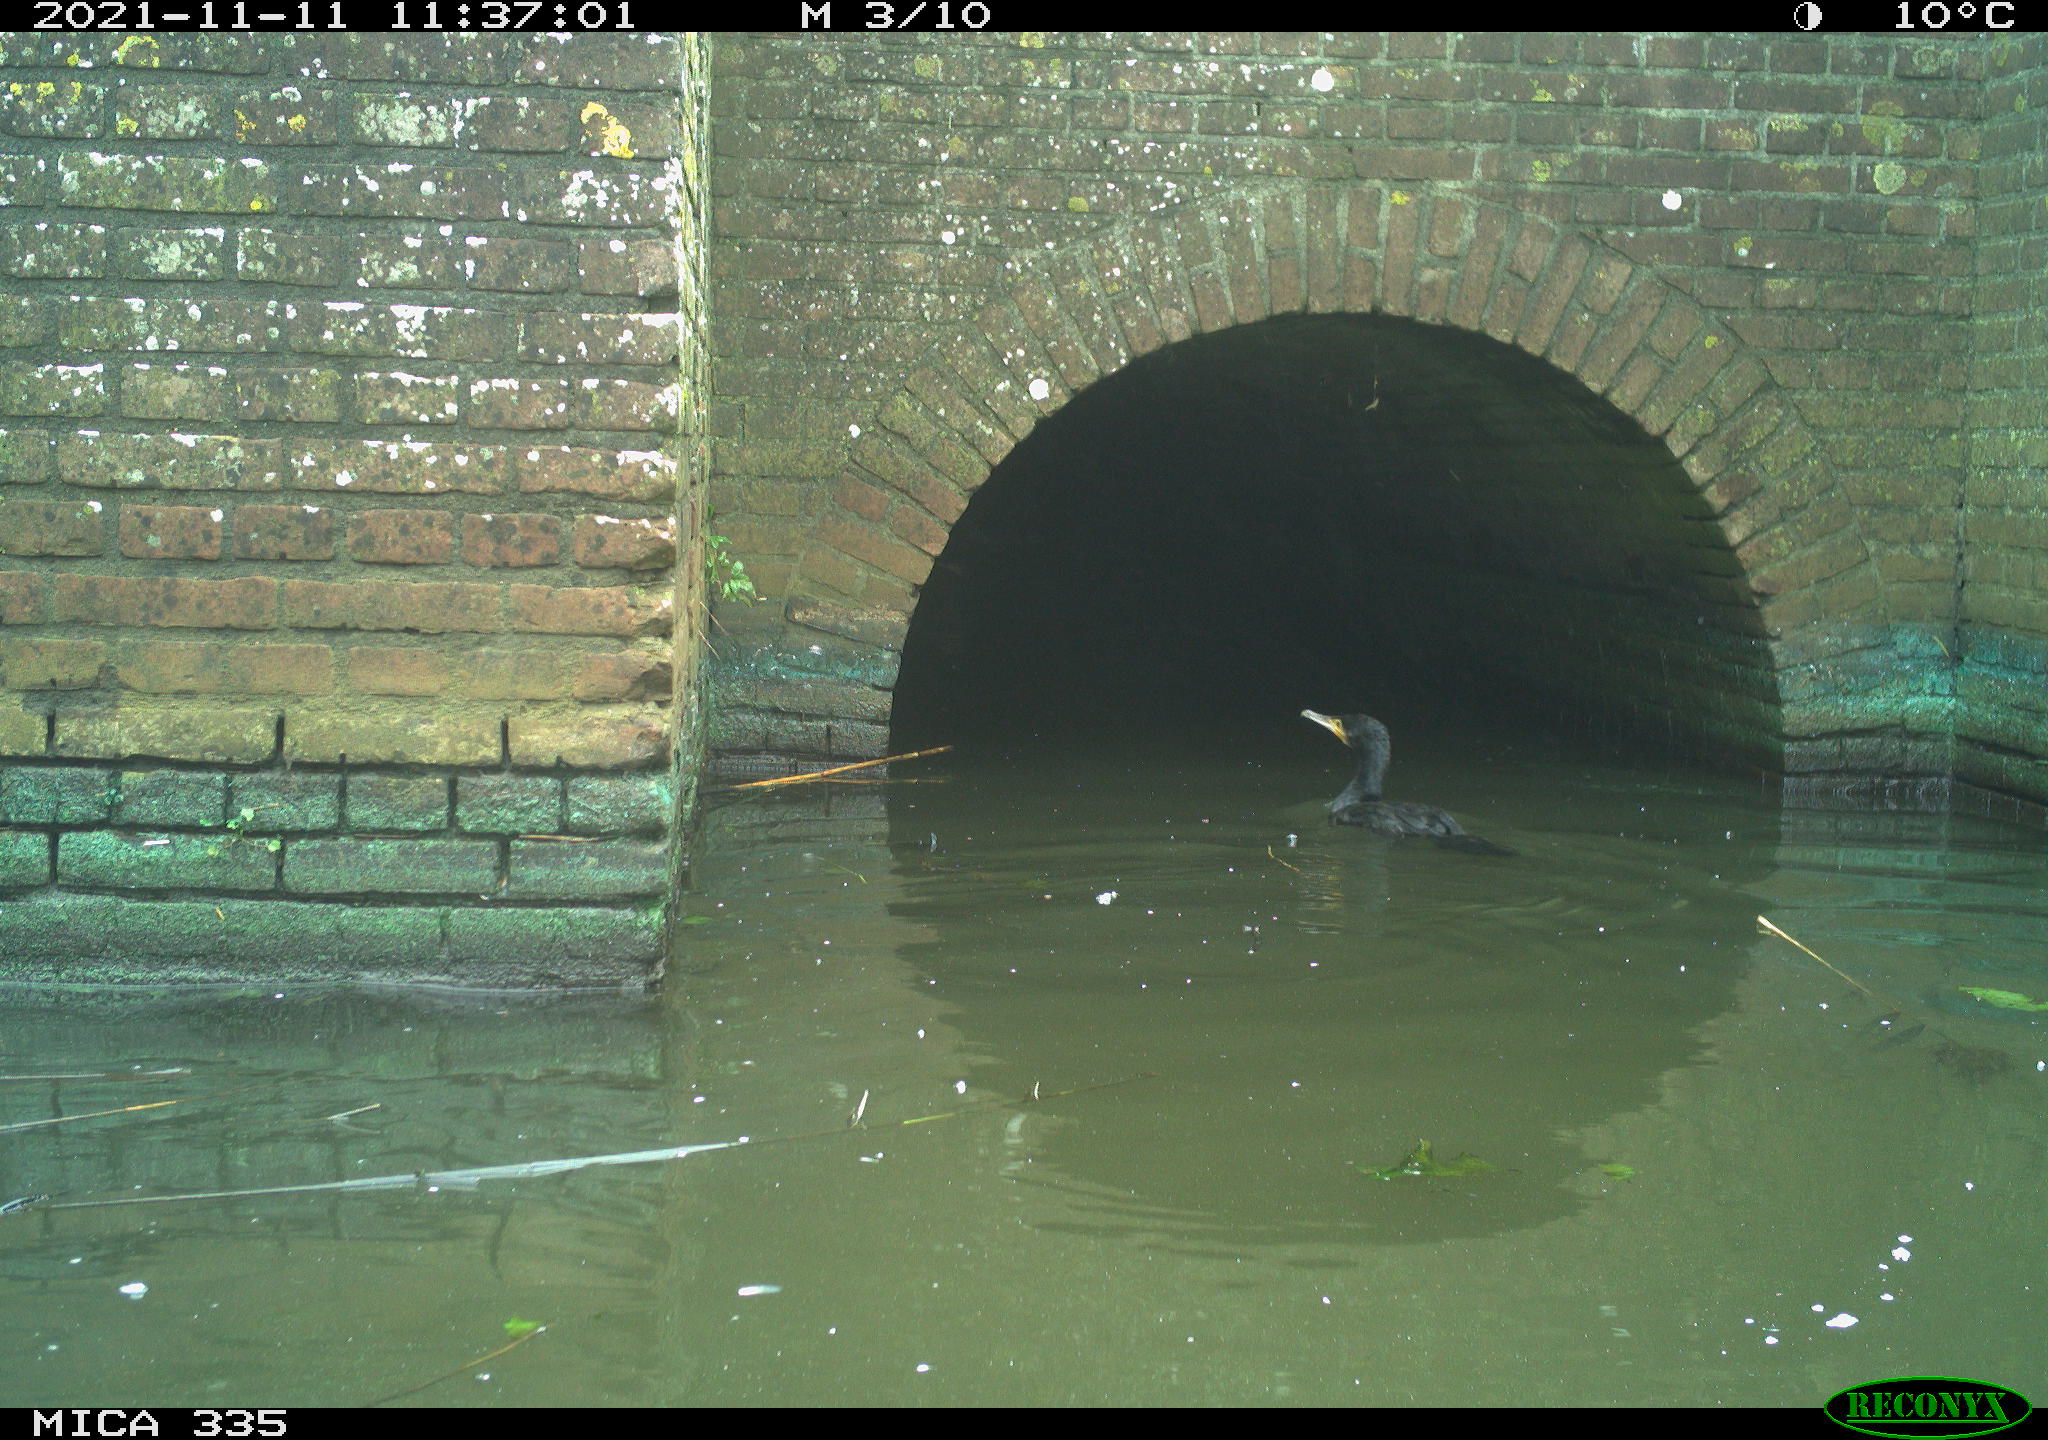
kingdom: Animalia
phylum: Chordata
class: Aves
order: Suliformes
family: Phalacrocoracidae
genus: Phalacrocorax
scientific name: Phalacrocorax carbo
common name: Great cormorant
